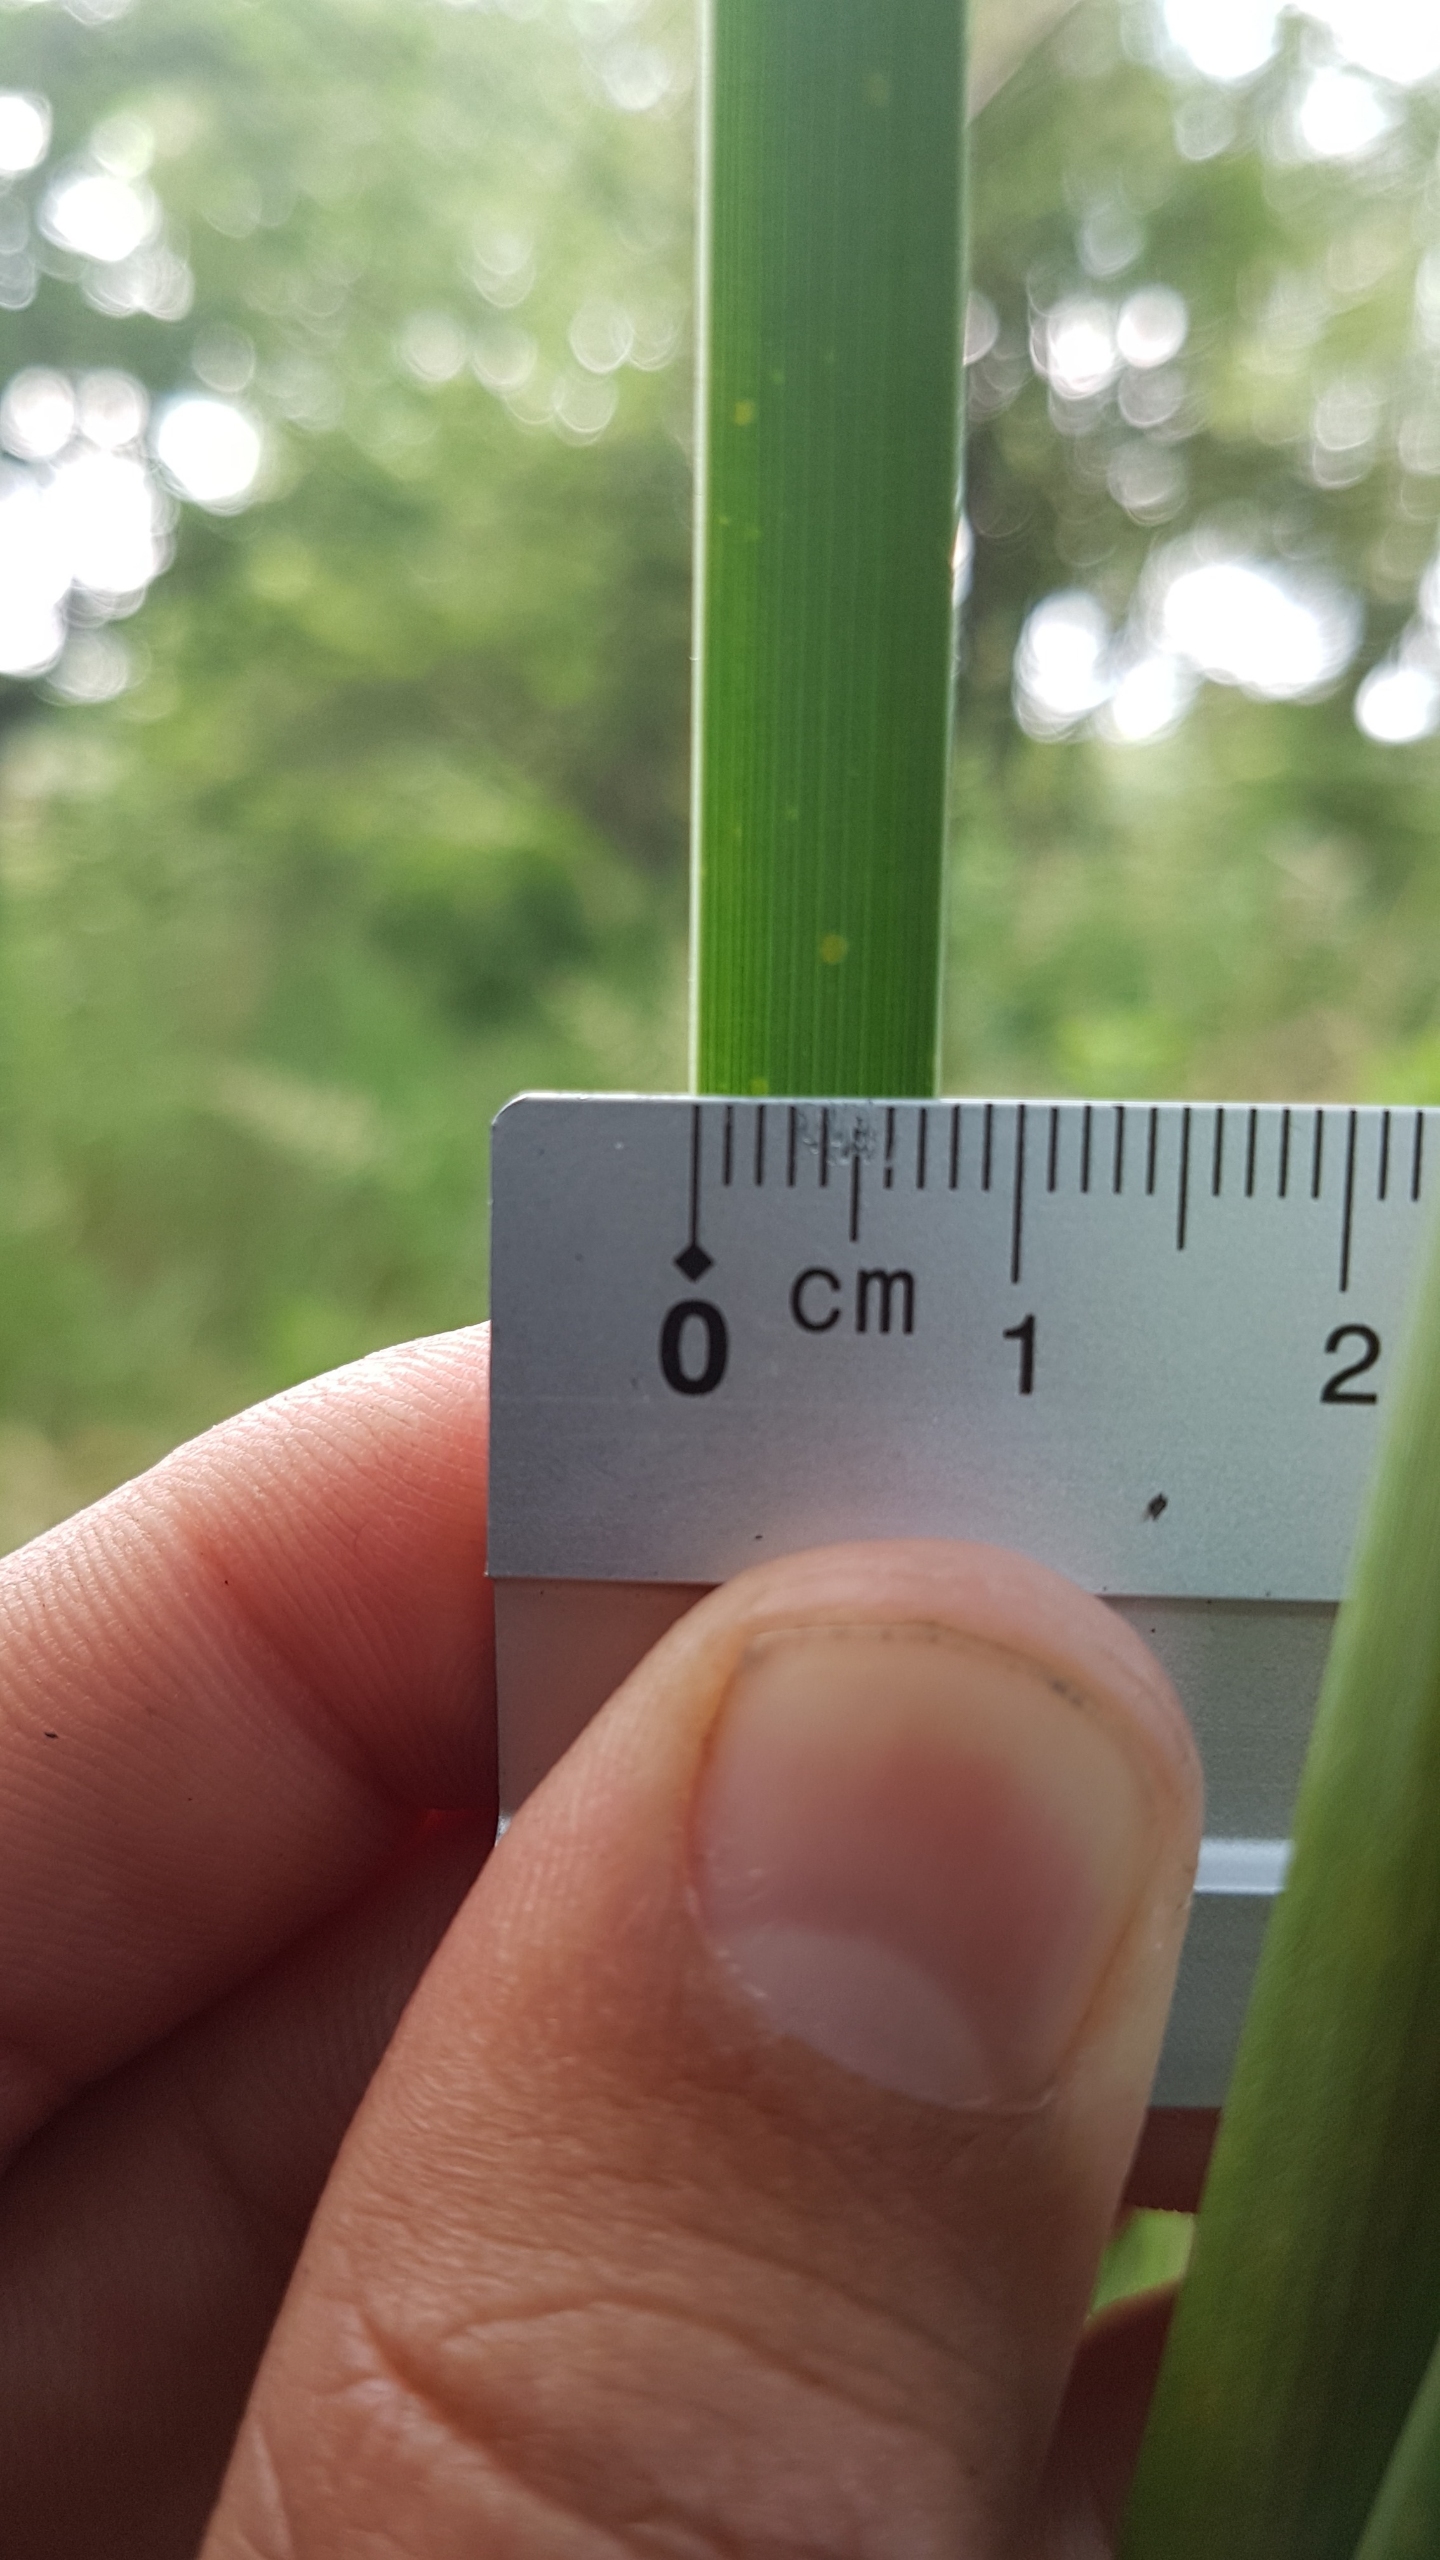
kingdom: Plantae
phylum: Tracheophyta
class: Liliopsida
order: Poales
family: Typhaceae
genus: Typha
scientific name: Typha angustifolia
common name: Smalbladet dunhammer
